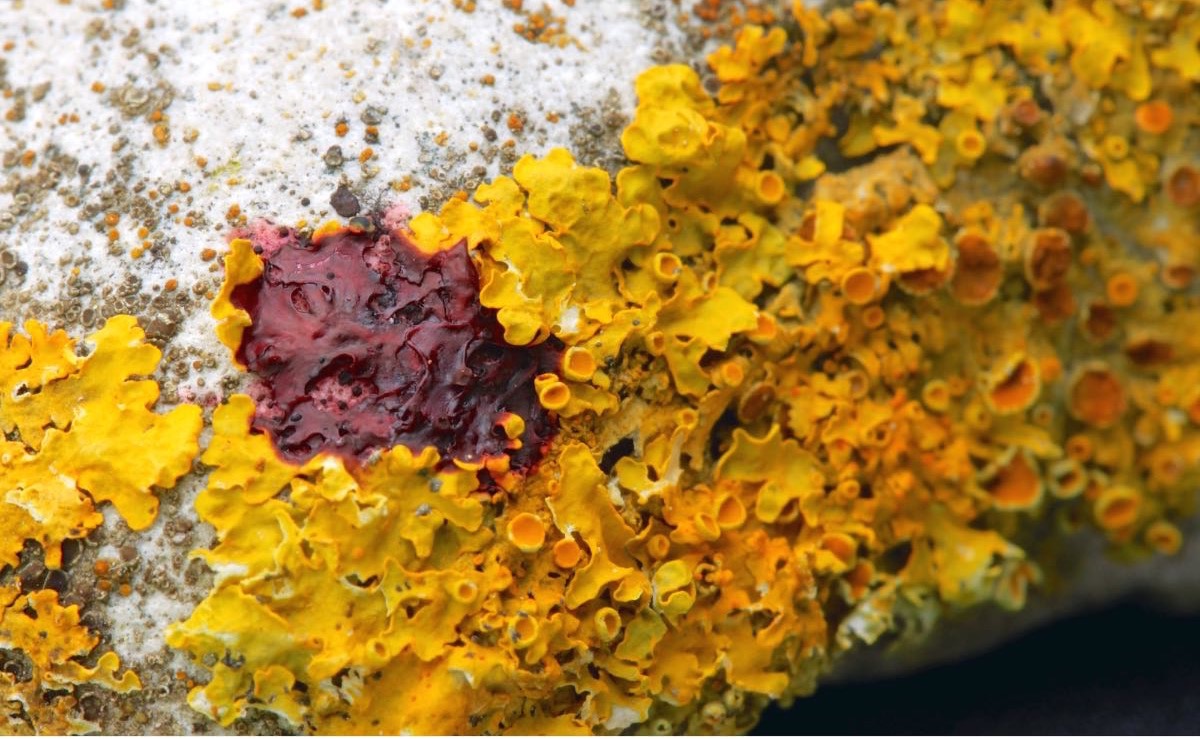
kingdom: Fungi
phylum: Ascomycota
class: Lecanoromycetes
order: Teloschistales
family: Teloschistaceae
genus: Xanthoria
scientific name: Xanthoria parietina
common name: almindelig væggelav
